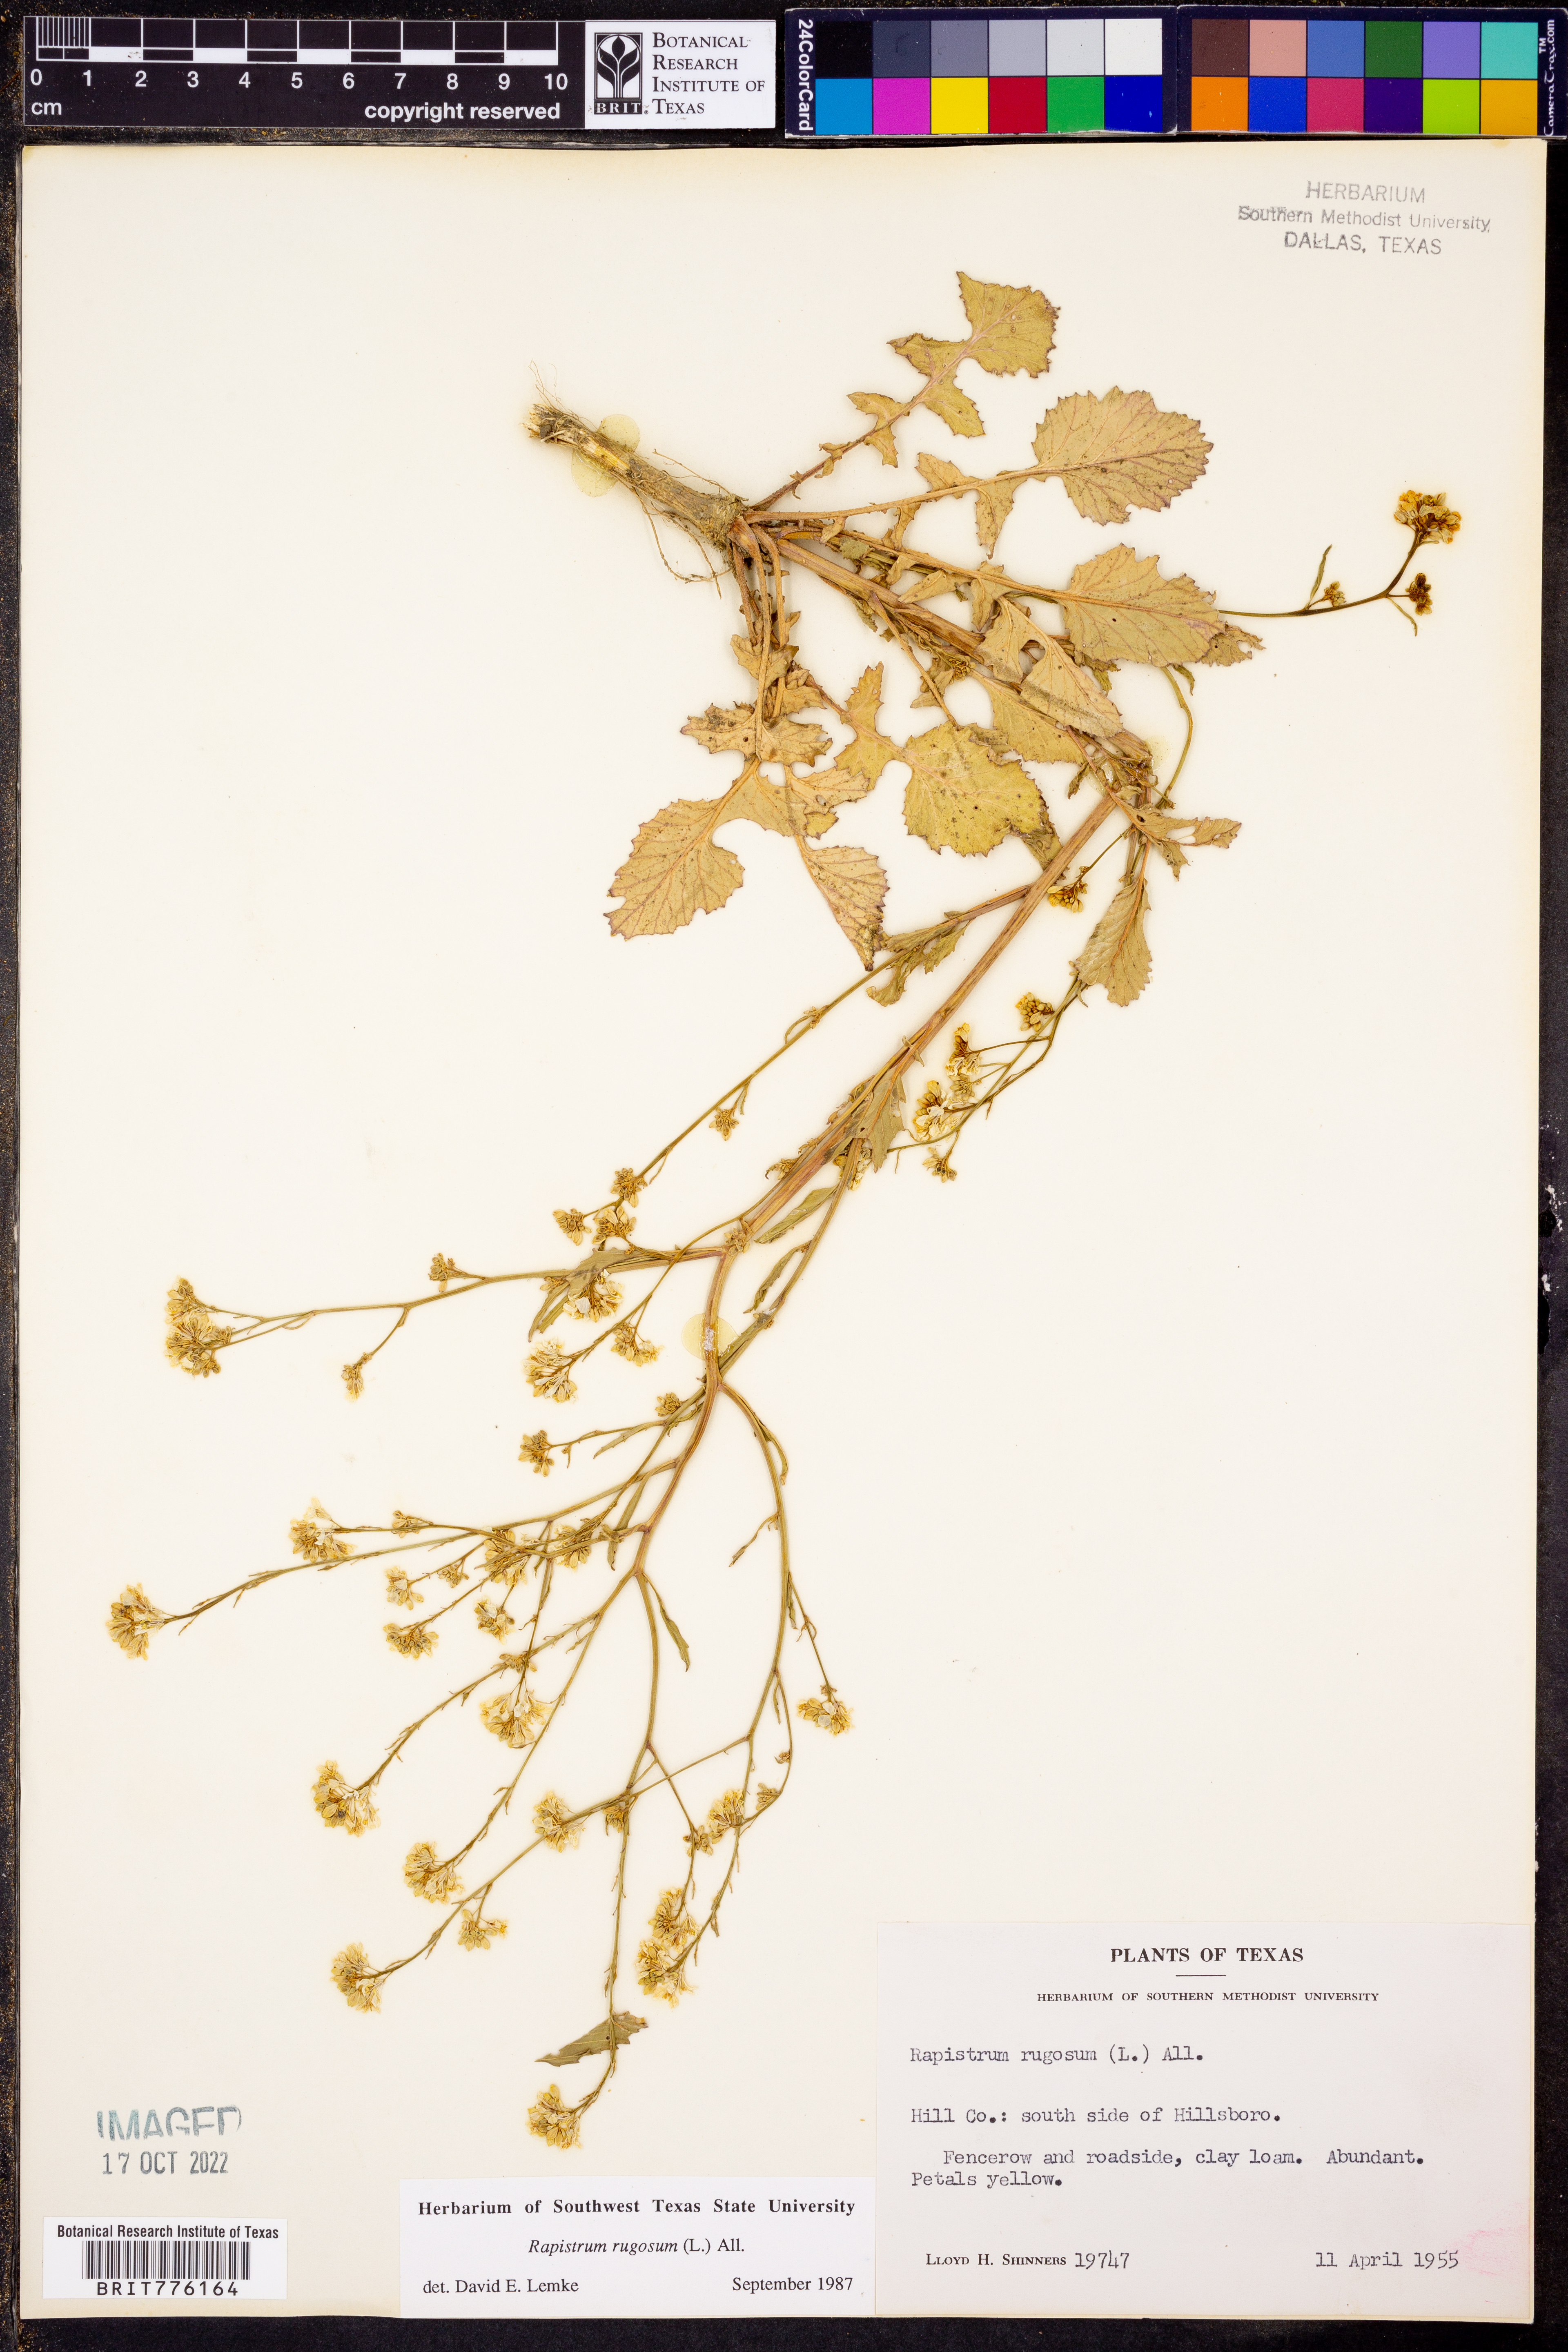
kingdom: Plantae
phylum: Tracheophyta
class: Magnoliopsida
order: Brassicales
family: Brassicaceae
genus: Rapistrum
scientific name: Rapistrum rugosum
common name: Annual bastardcabbage
